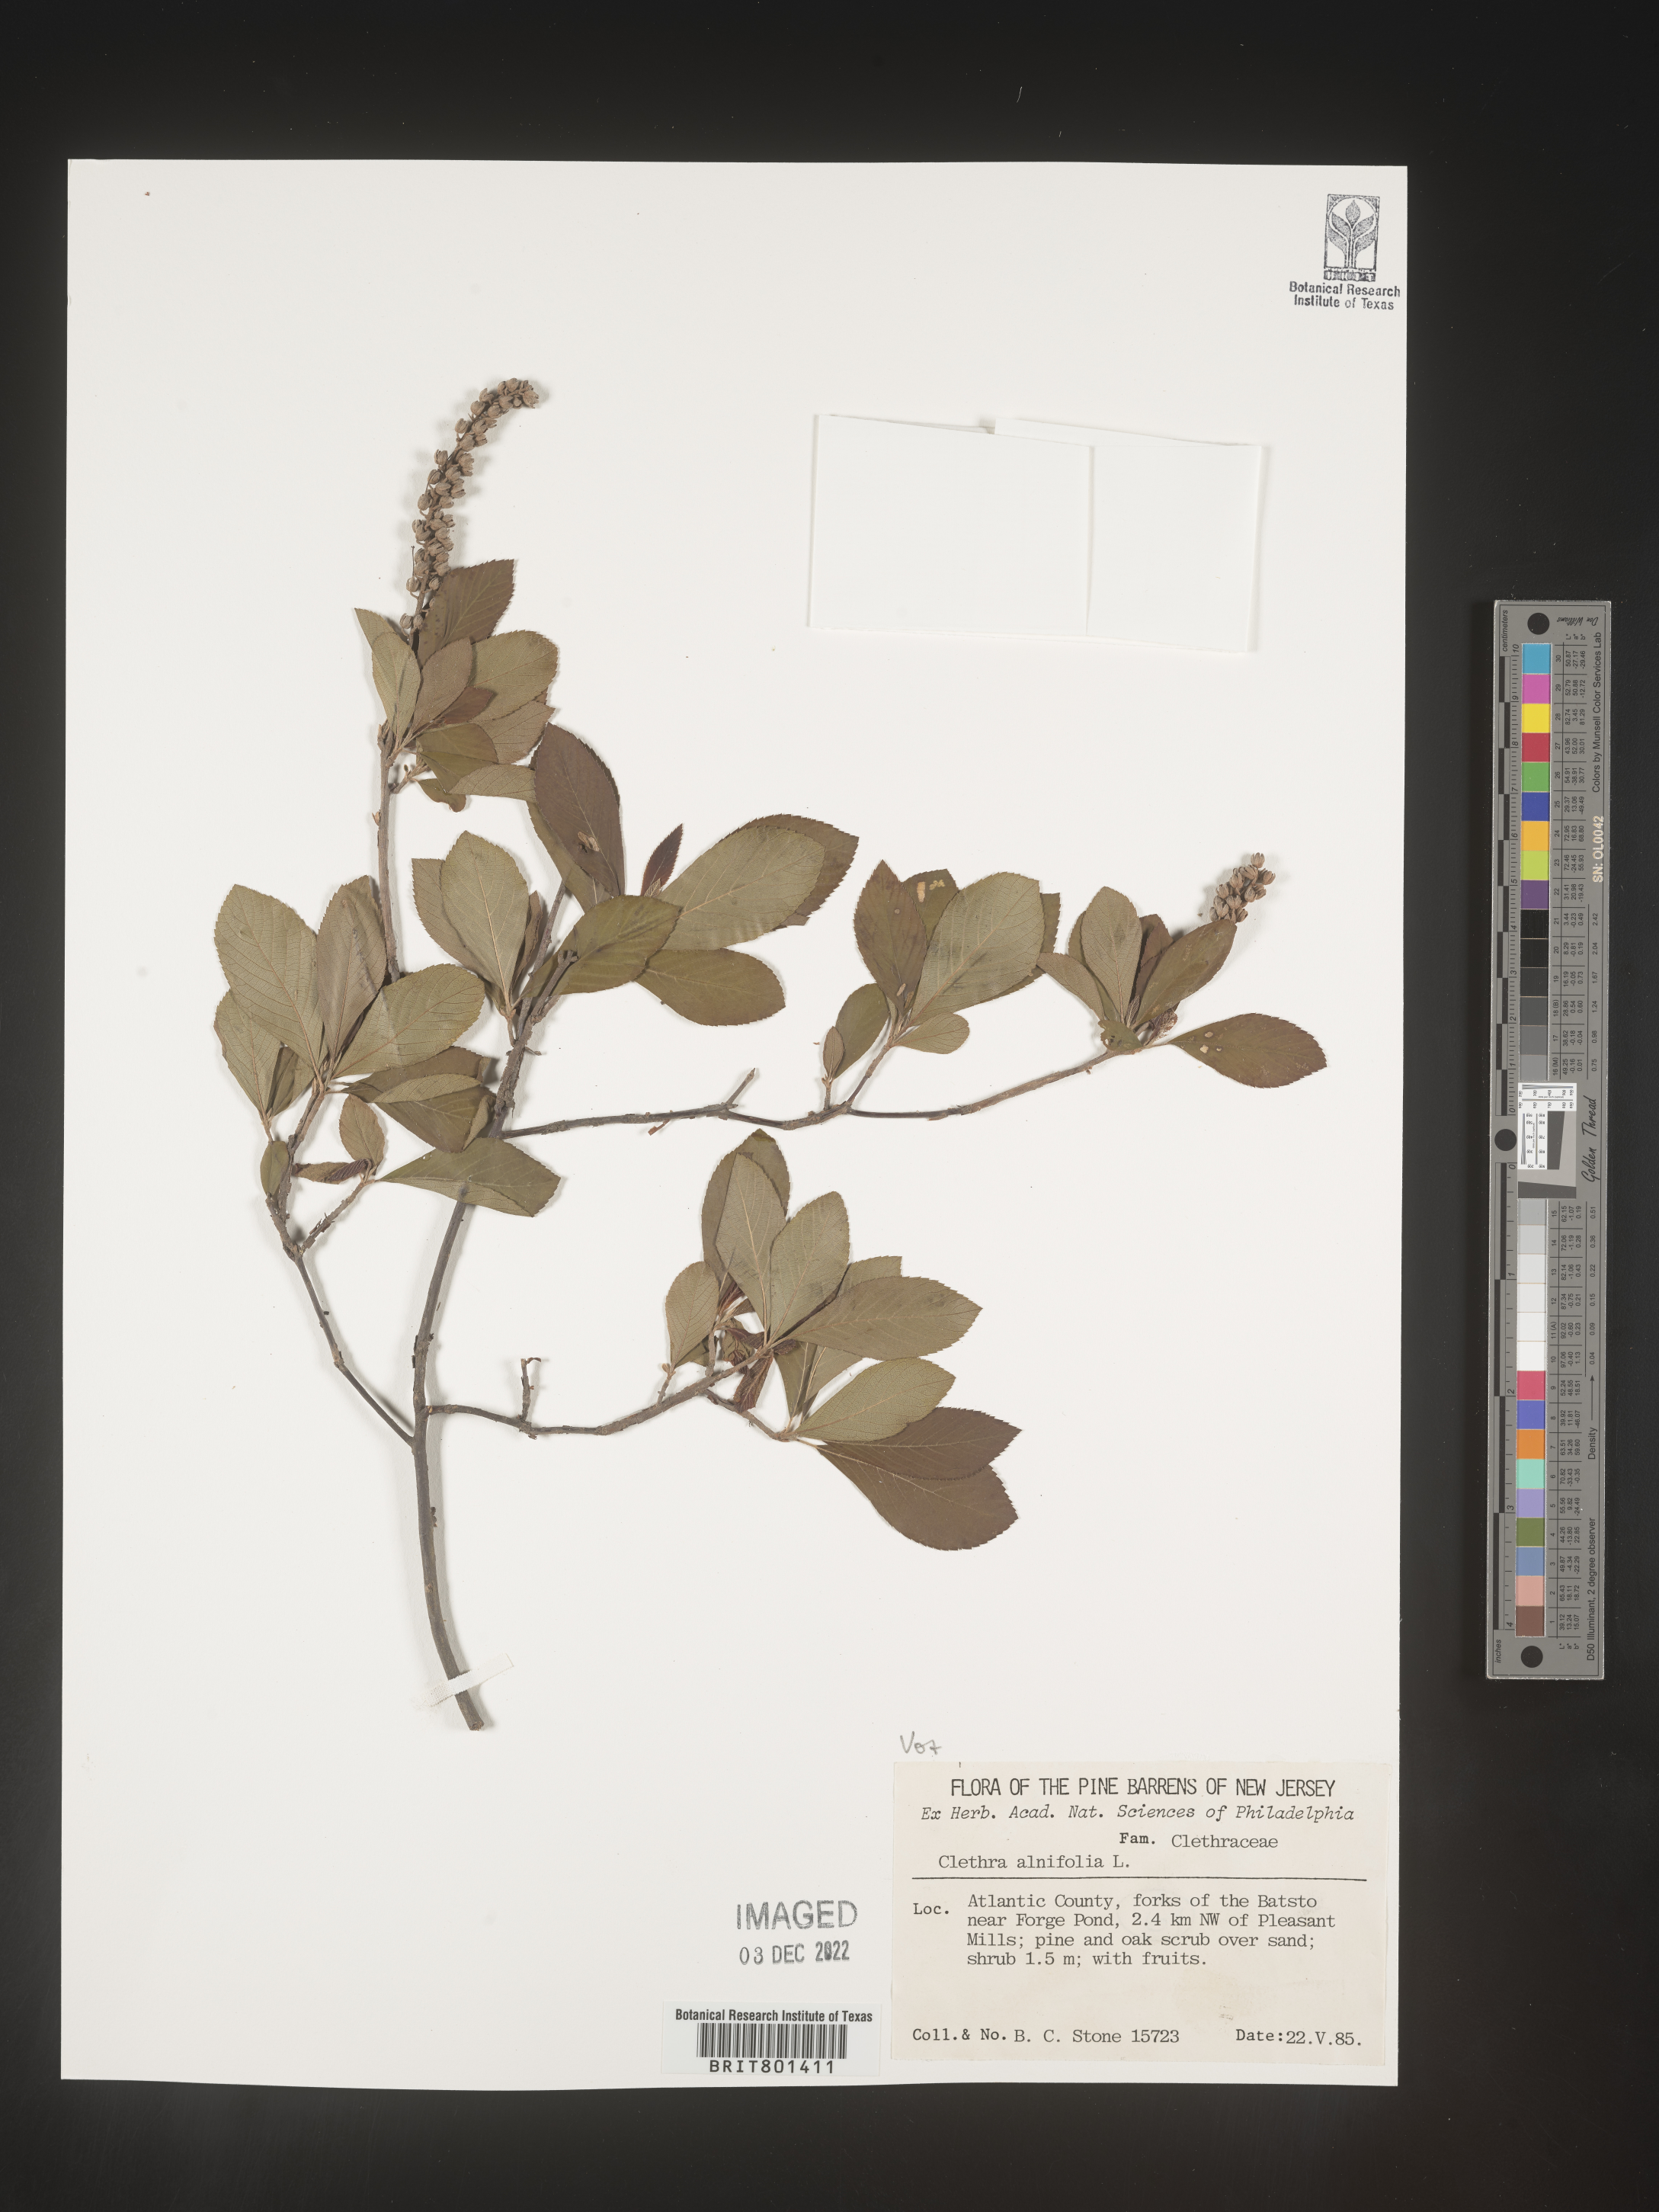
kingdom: Plantae
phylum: Tracheophyta
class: Magnoliopsida
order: Ericales
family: Clethraceae
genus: Clethra
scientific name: Clethra alnifolia
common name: Sweet pepperbush
